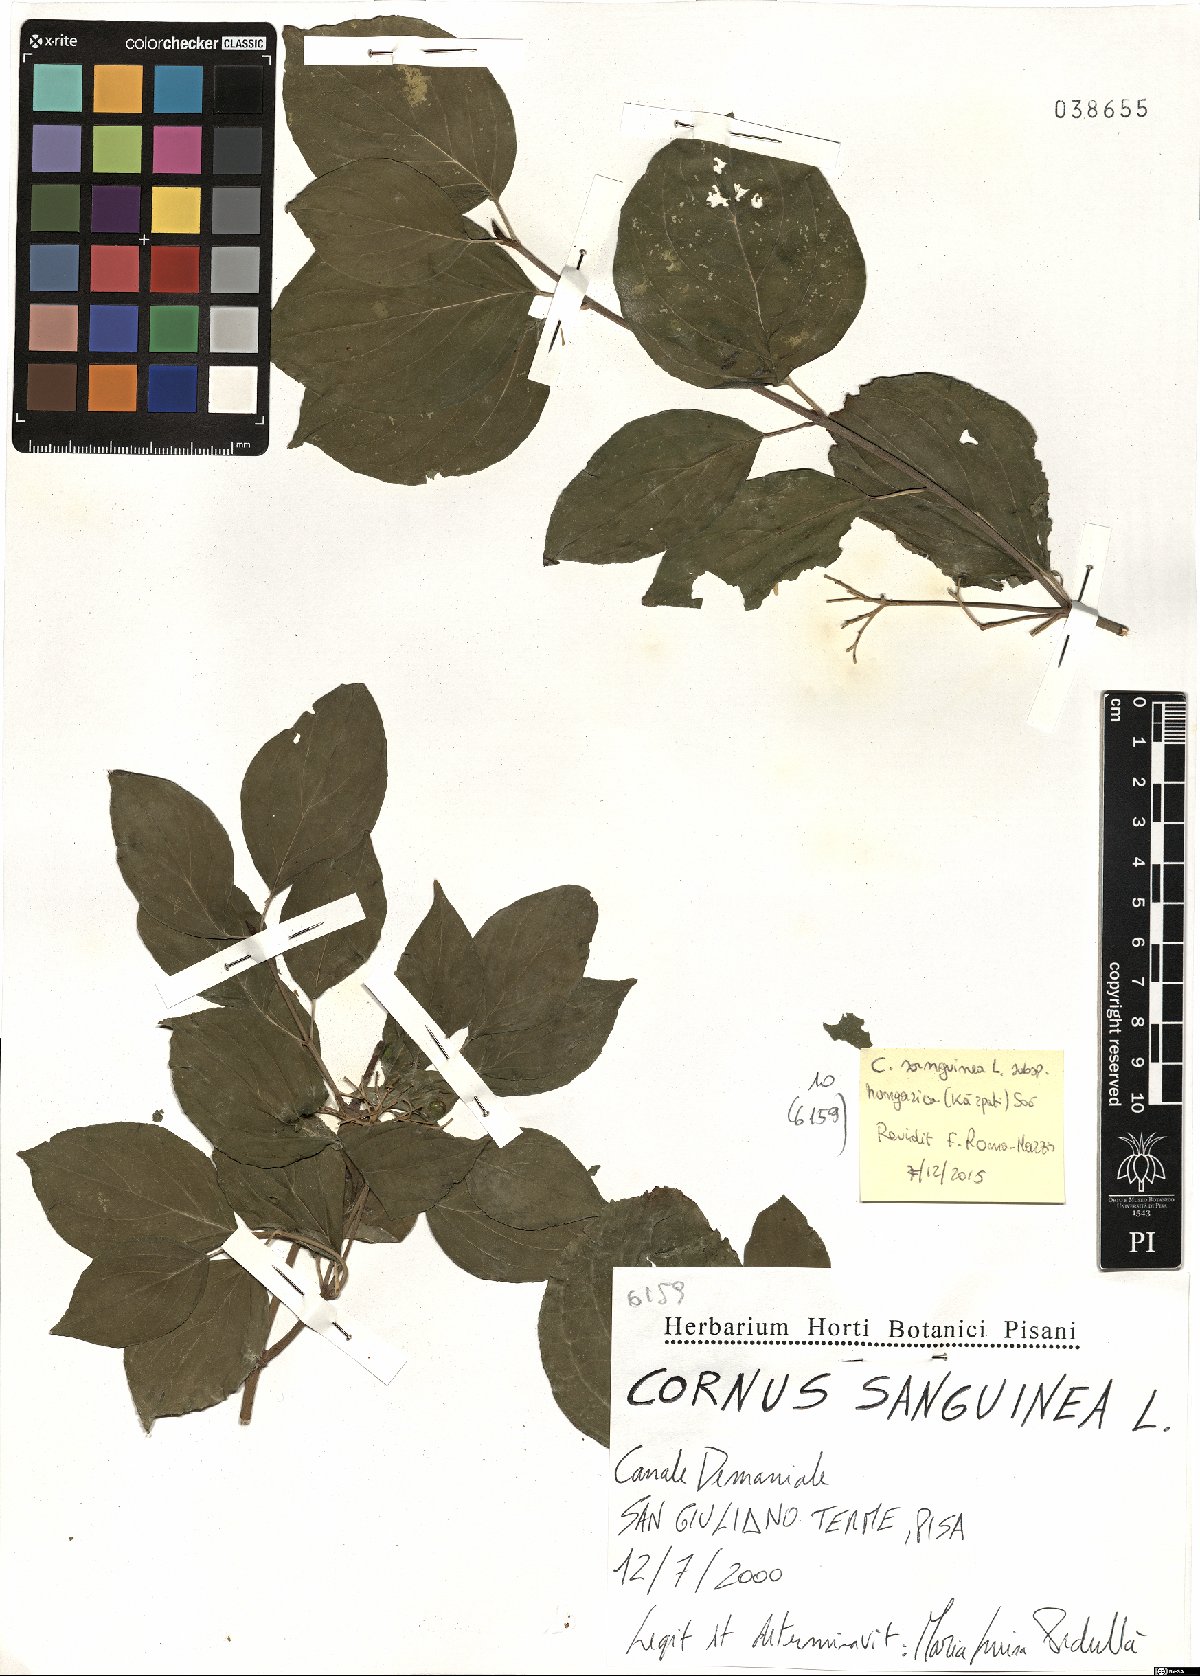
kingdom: Plantae
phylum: Tracheophyta
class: Magnoliopsida
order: Cornales
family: Cornaceae
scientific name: Cornaceae
